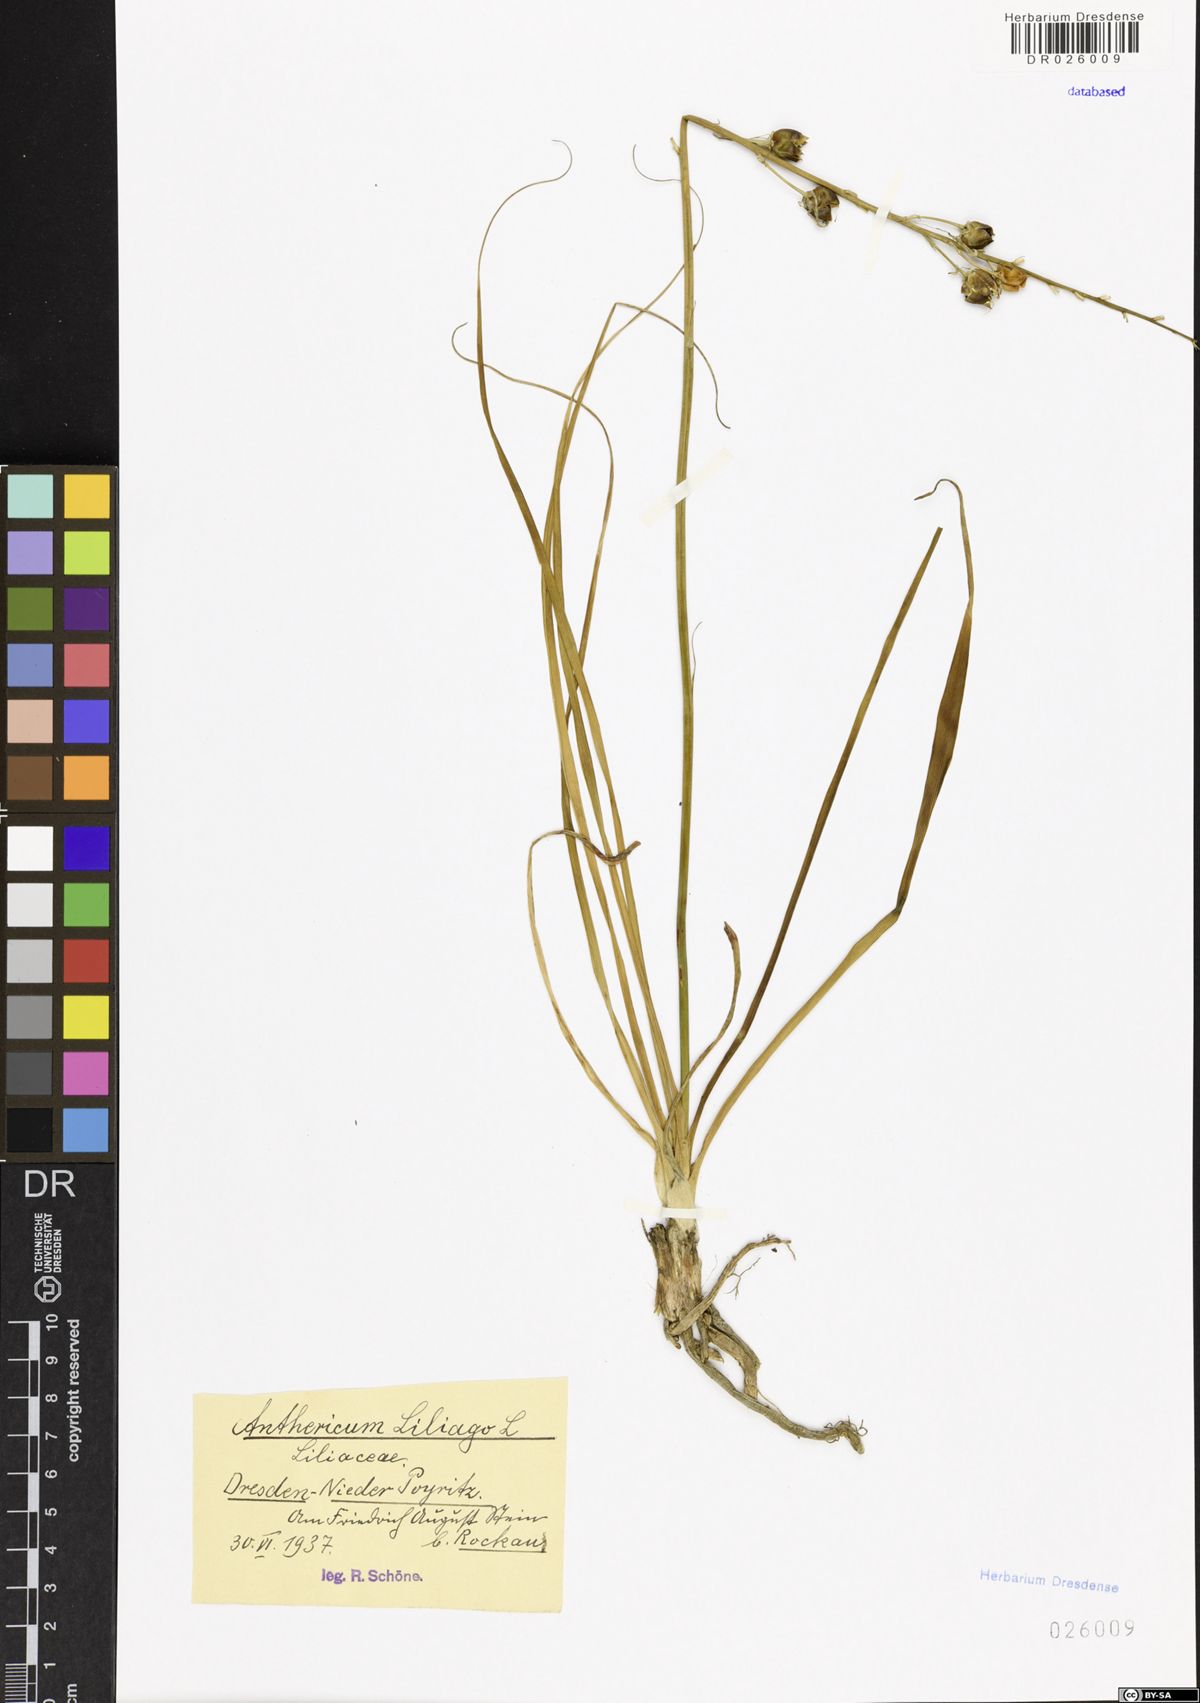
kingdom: Plantae
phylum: Tracheophyta
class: Liliopsida
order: Asparagales
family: Asparagaceae
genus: Anthericum
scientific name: Anthericum liliago
